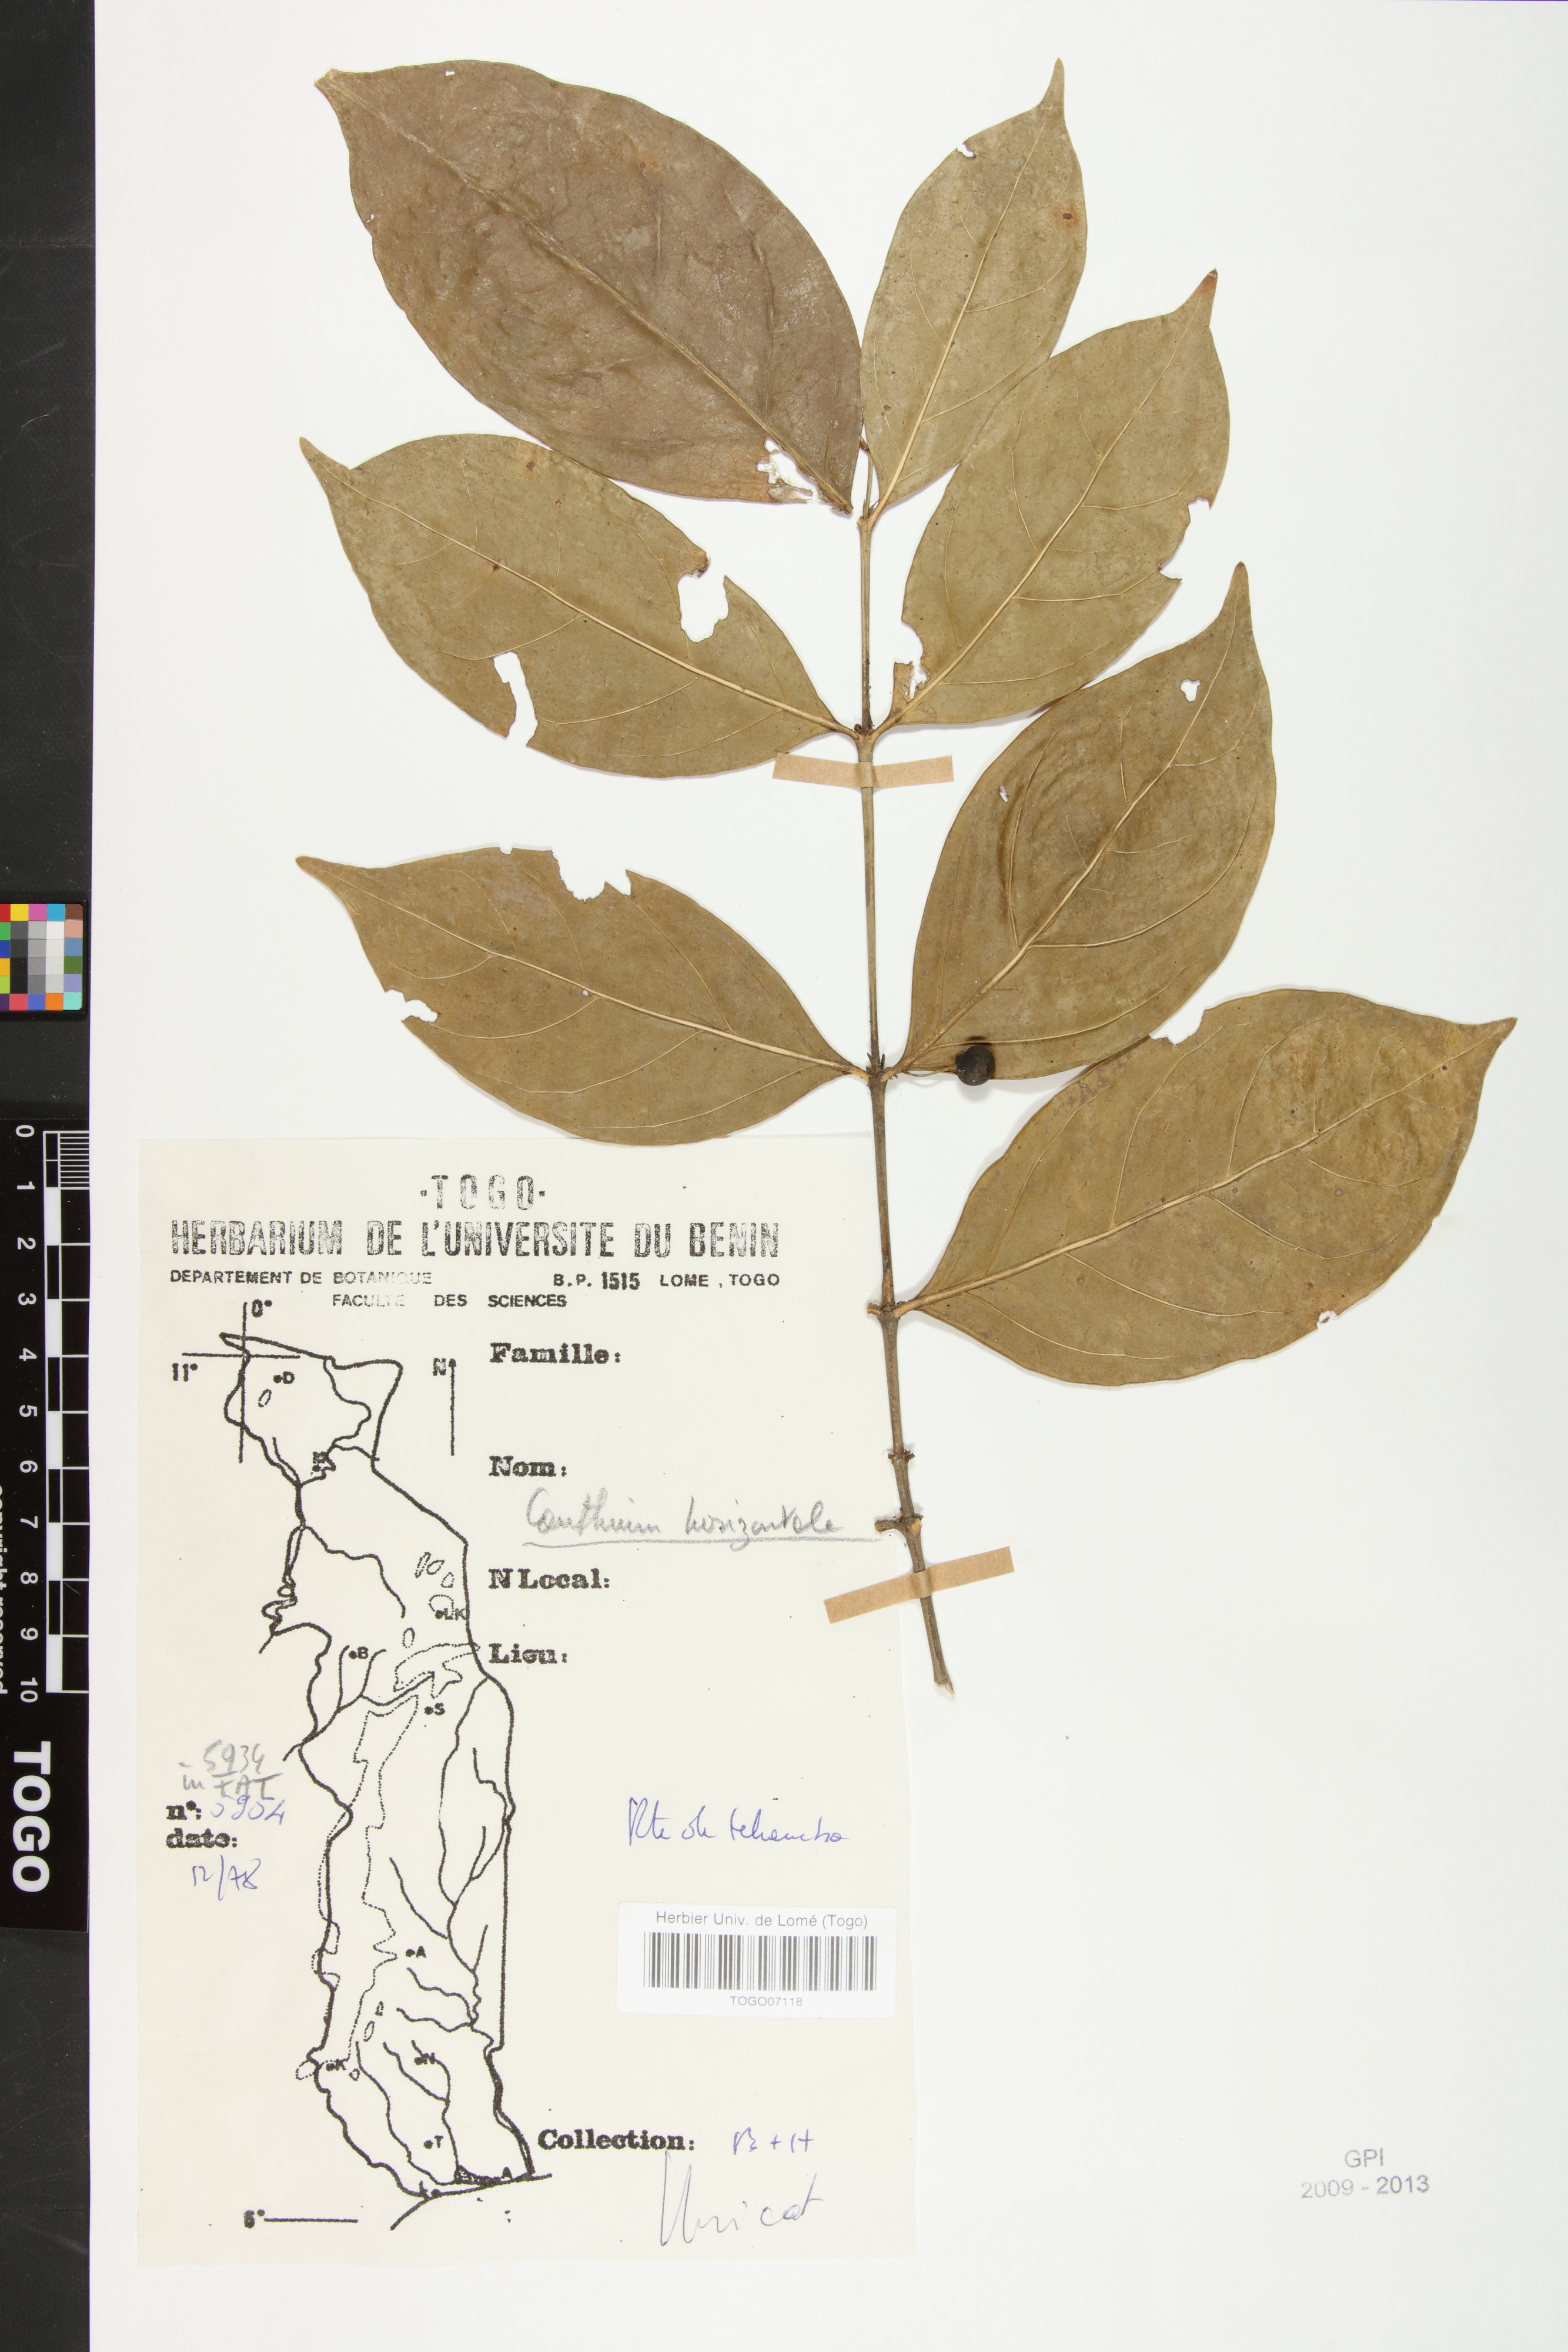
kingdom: Plantae
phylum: Tracheophyta
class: Magnoliopsida
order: Gentianales
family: Rubiaceae
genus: Psydrax
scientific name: Psydrax horizontalis
